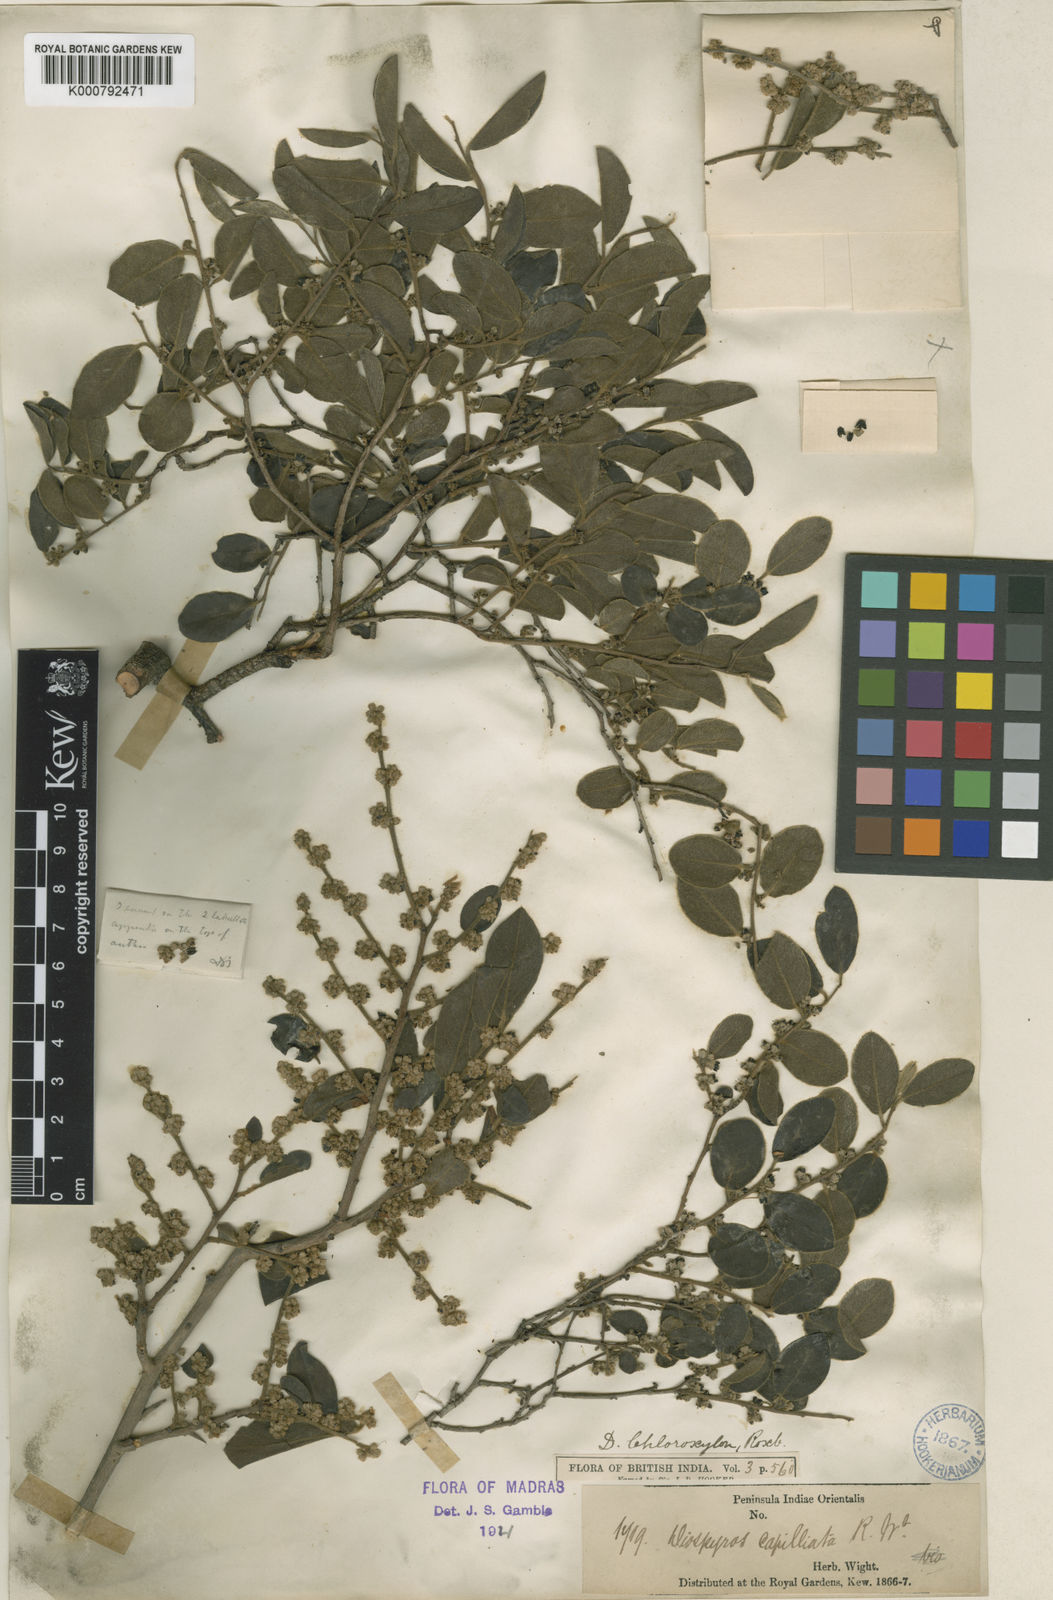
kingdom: Plantae
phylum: Tracheophyta
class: Magnoliopsida
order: Ericales
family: Ebenaceae
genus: Diospyros
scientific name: Diospyros chloroxylon
